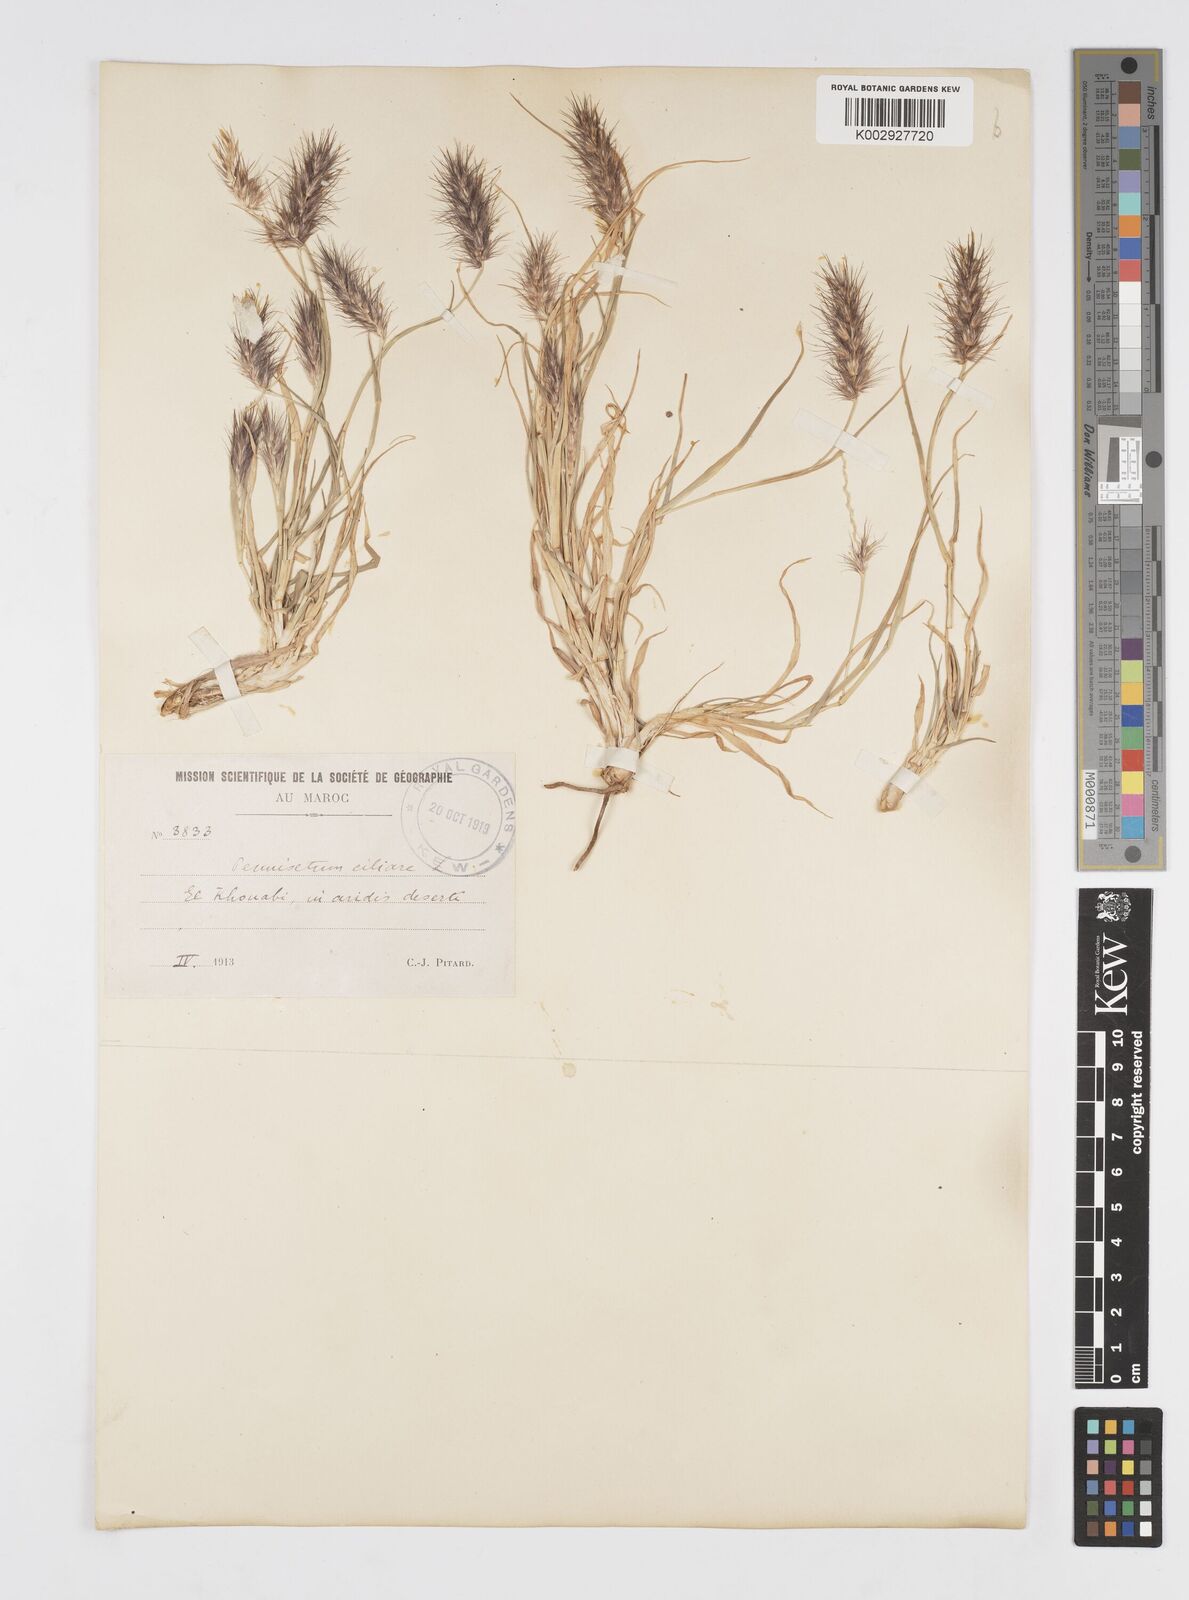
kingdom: Plantae
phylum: Tracheophyta
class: Liliopsida
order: Poales
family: Poaceae
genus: Cenchrus
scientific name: Cenchrus ciliaris
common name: Buffelgrass
